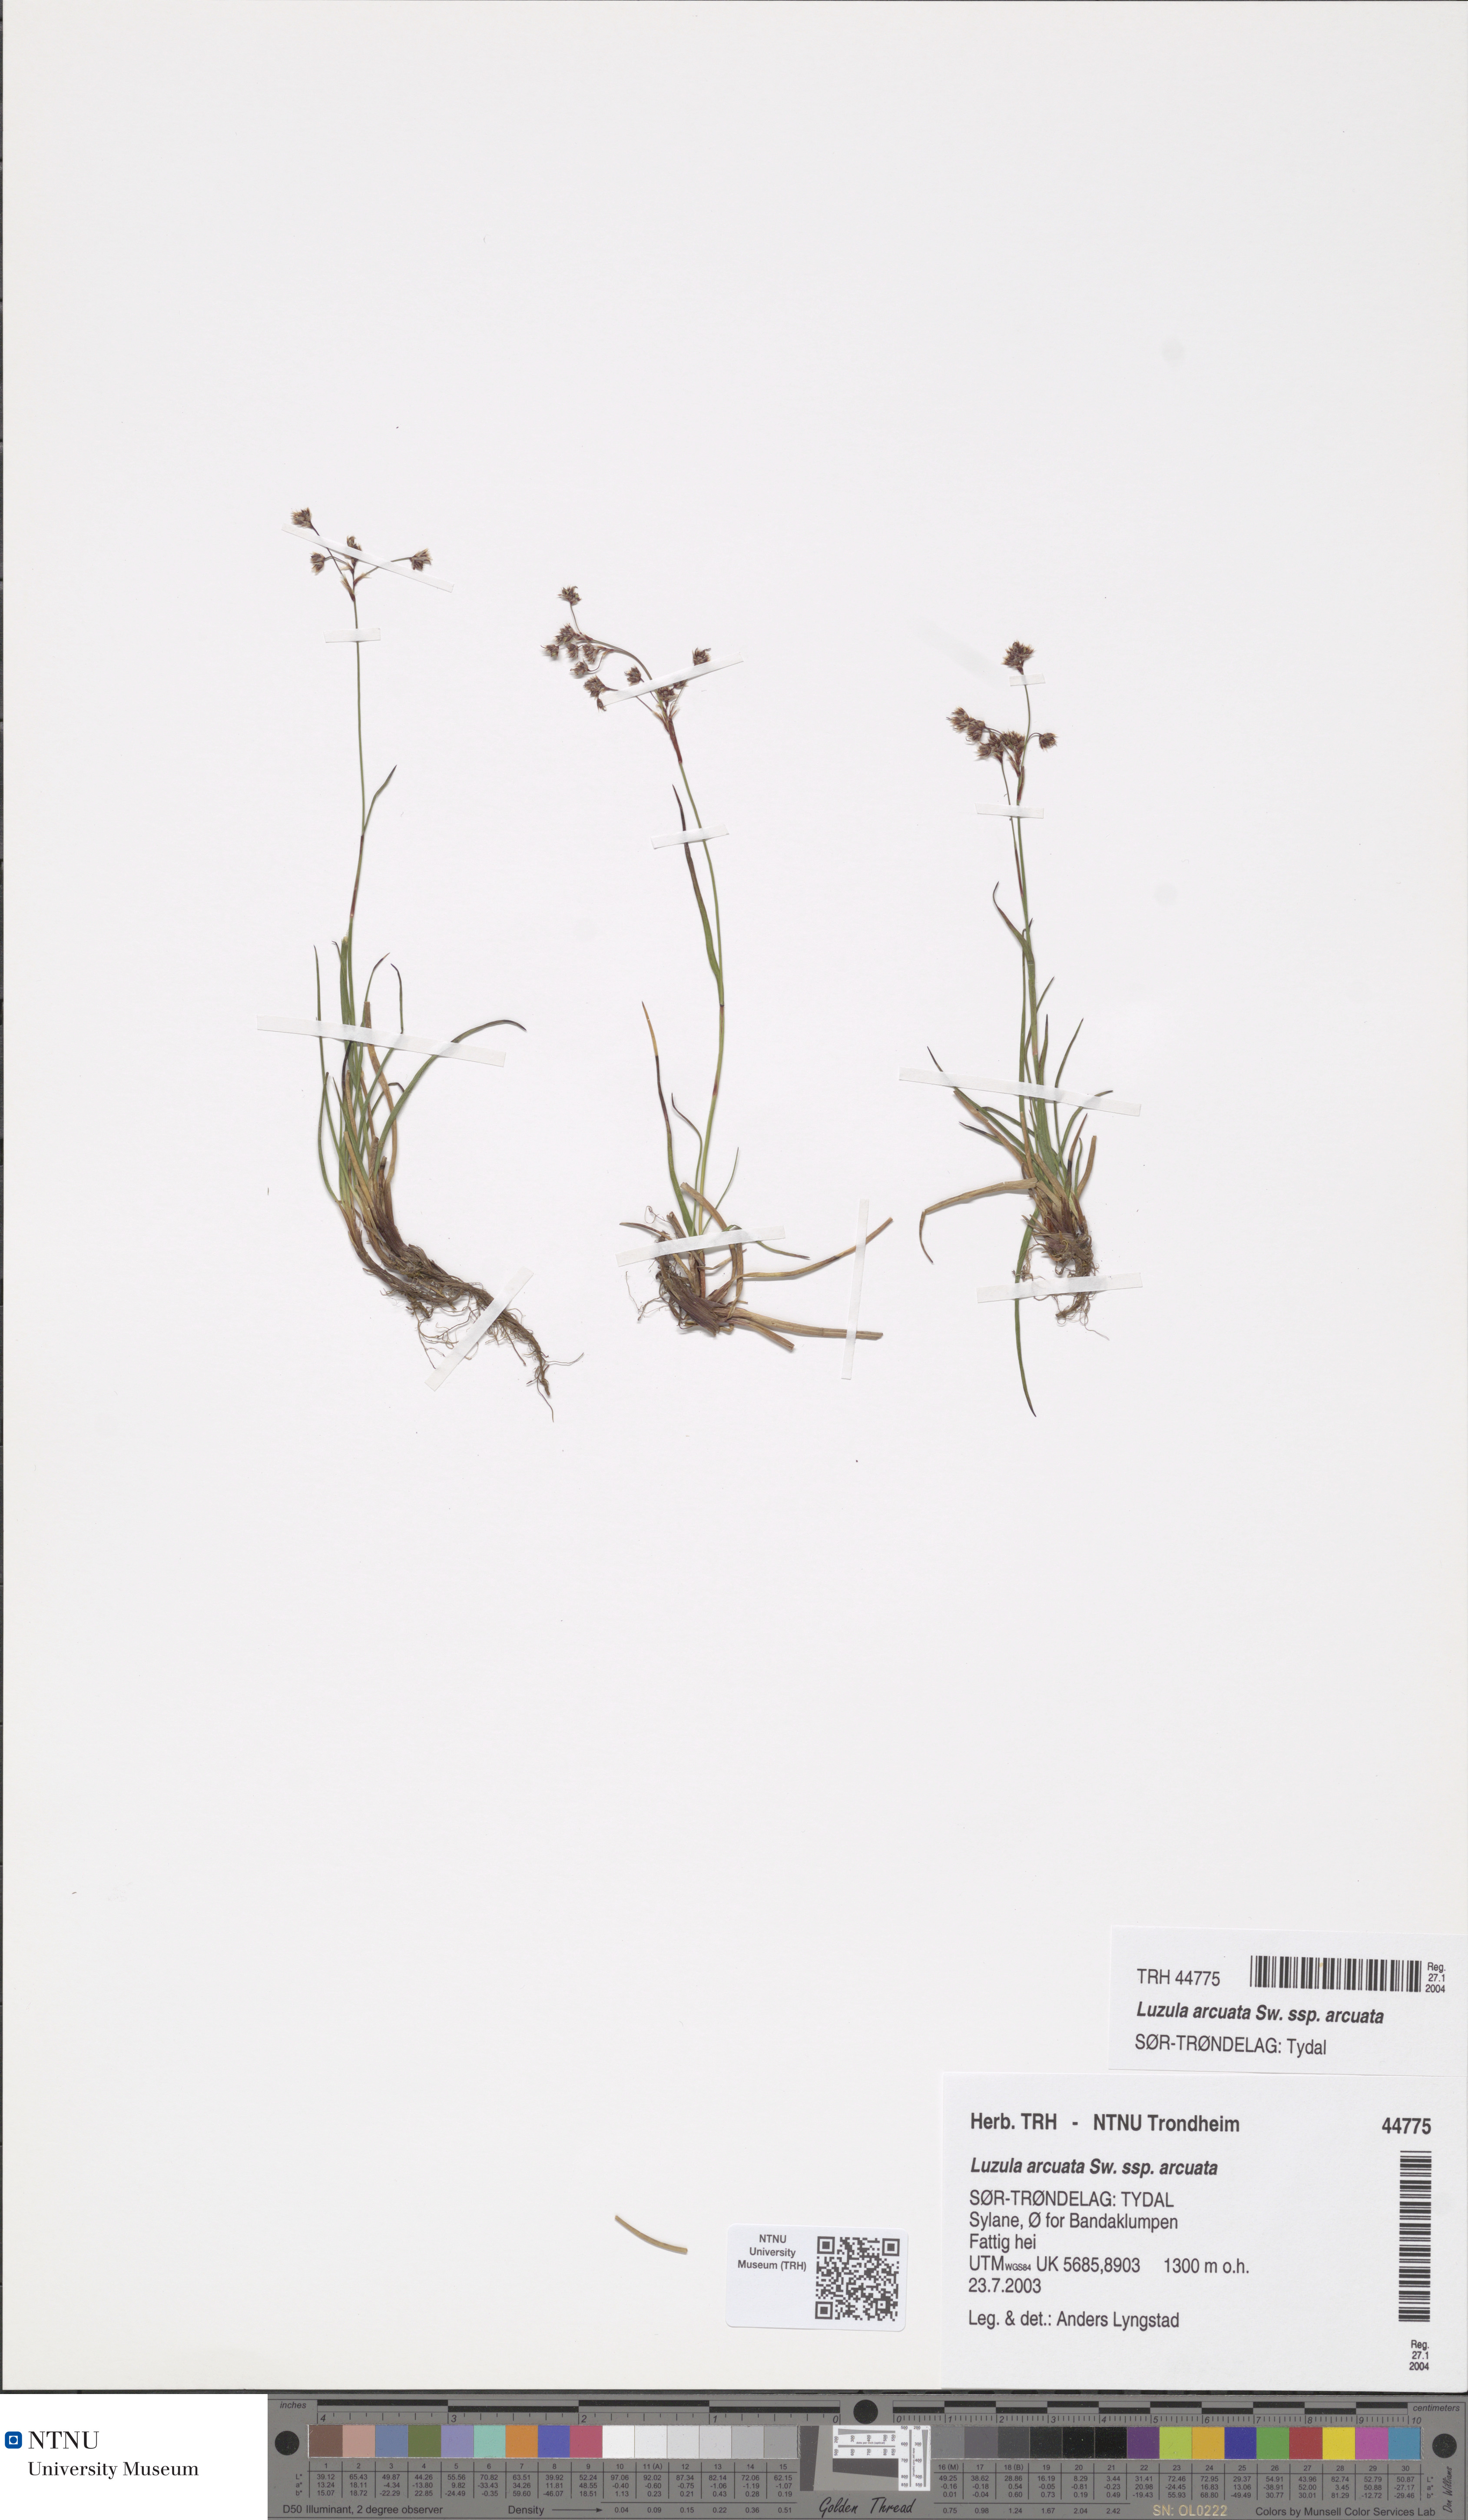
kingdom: Plantae
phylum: Tracheophyta
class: Liliopsida
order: Poales
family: Juncaceae
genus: Luzula
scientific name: Luzula arcuata
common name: Curved wood-rush
